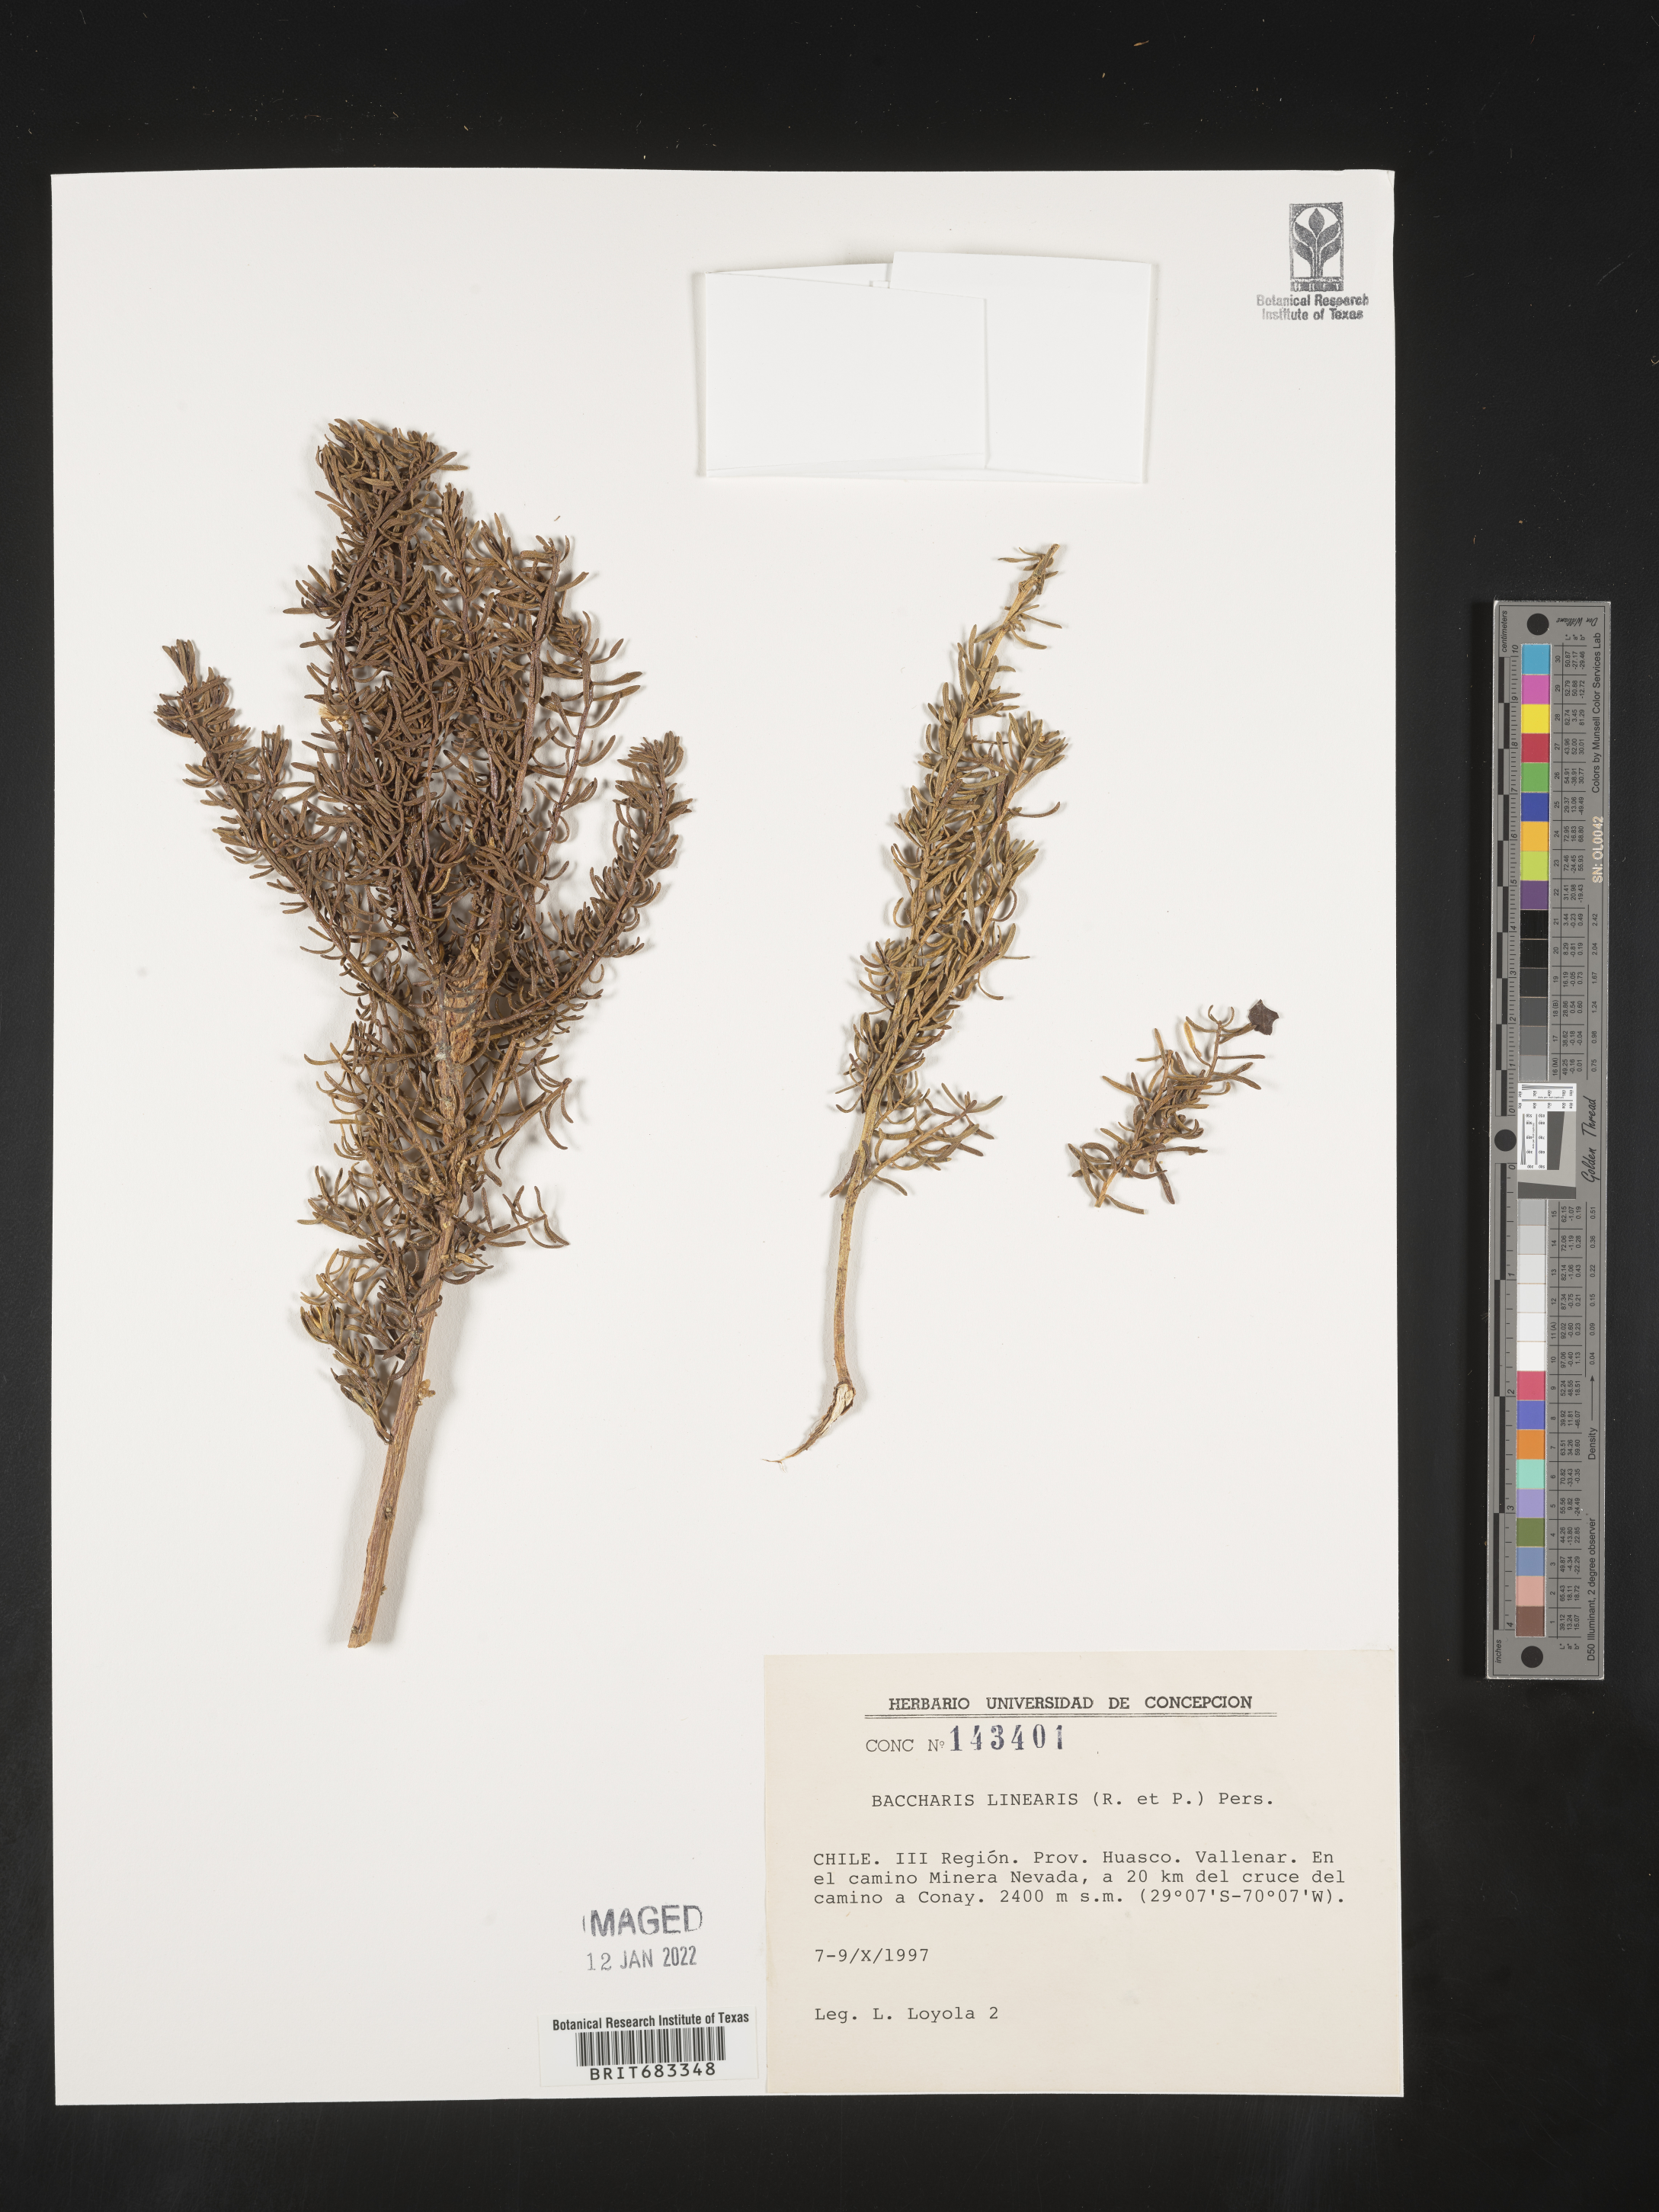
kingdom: Plantae
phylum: Tracheophyta
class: Magnoliopsida
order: Asterales
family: Asteraceae
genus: Baccharis
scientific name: Baccharis
